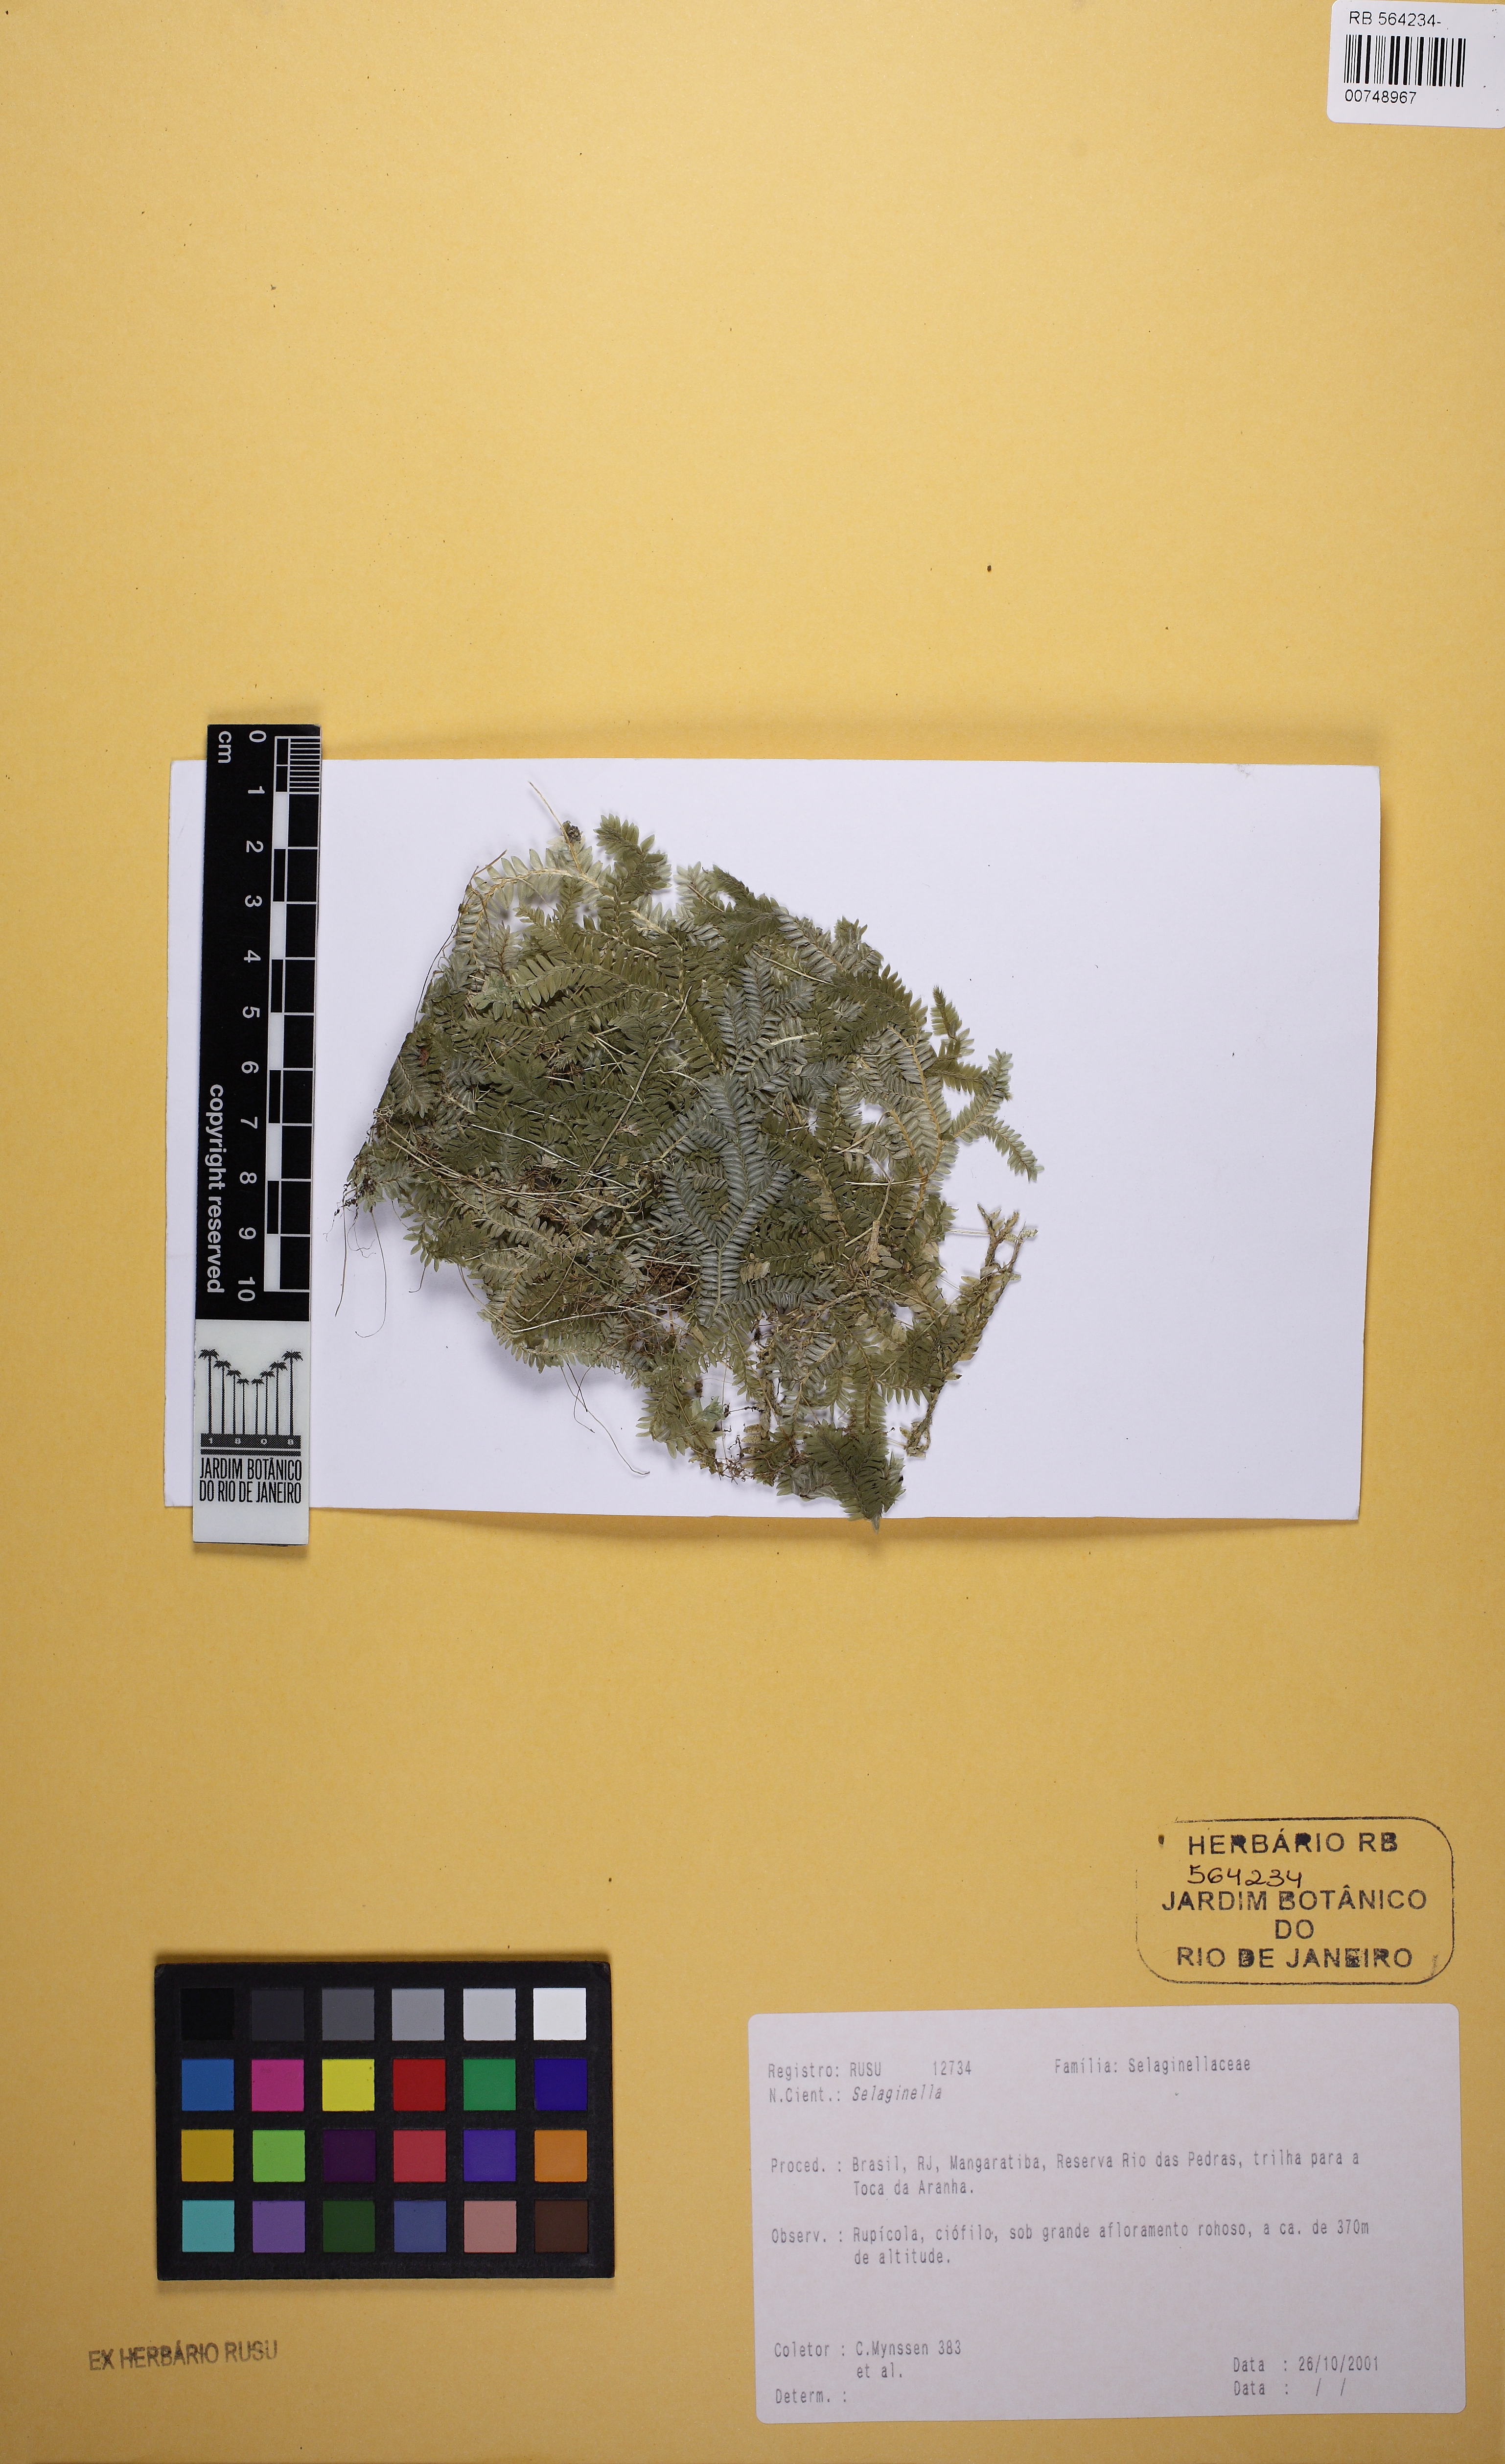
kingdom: Plantae
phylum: Tracheophyta
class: Lycopodiopsida
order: Selaginellales
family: Selaginellaceae
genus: Selaginella
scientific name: Selaginella flexuosa
